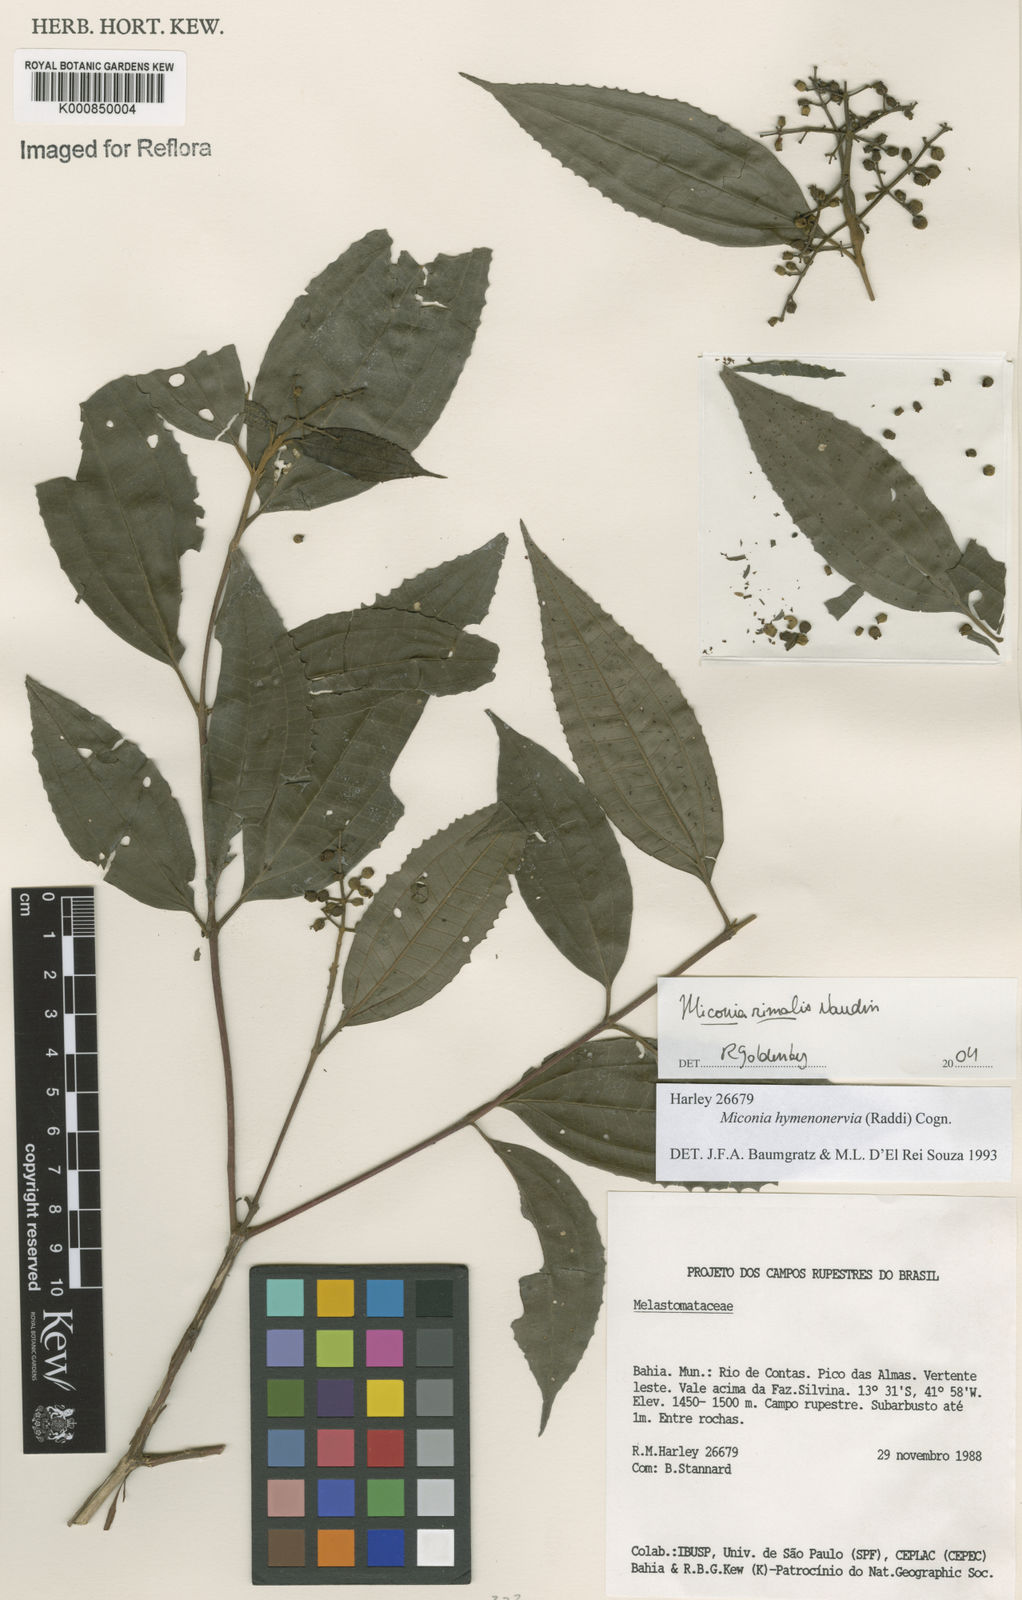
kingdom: Plantae
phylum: Tracheophyta
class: Magnoliopsida
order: Myrtales
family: Melastomataceae
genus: Miconia
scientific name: Miconia
